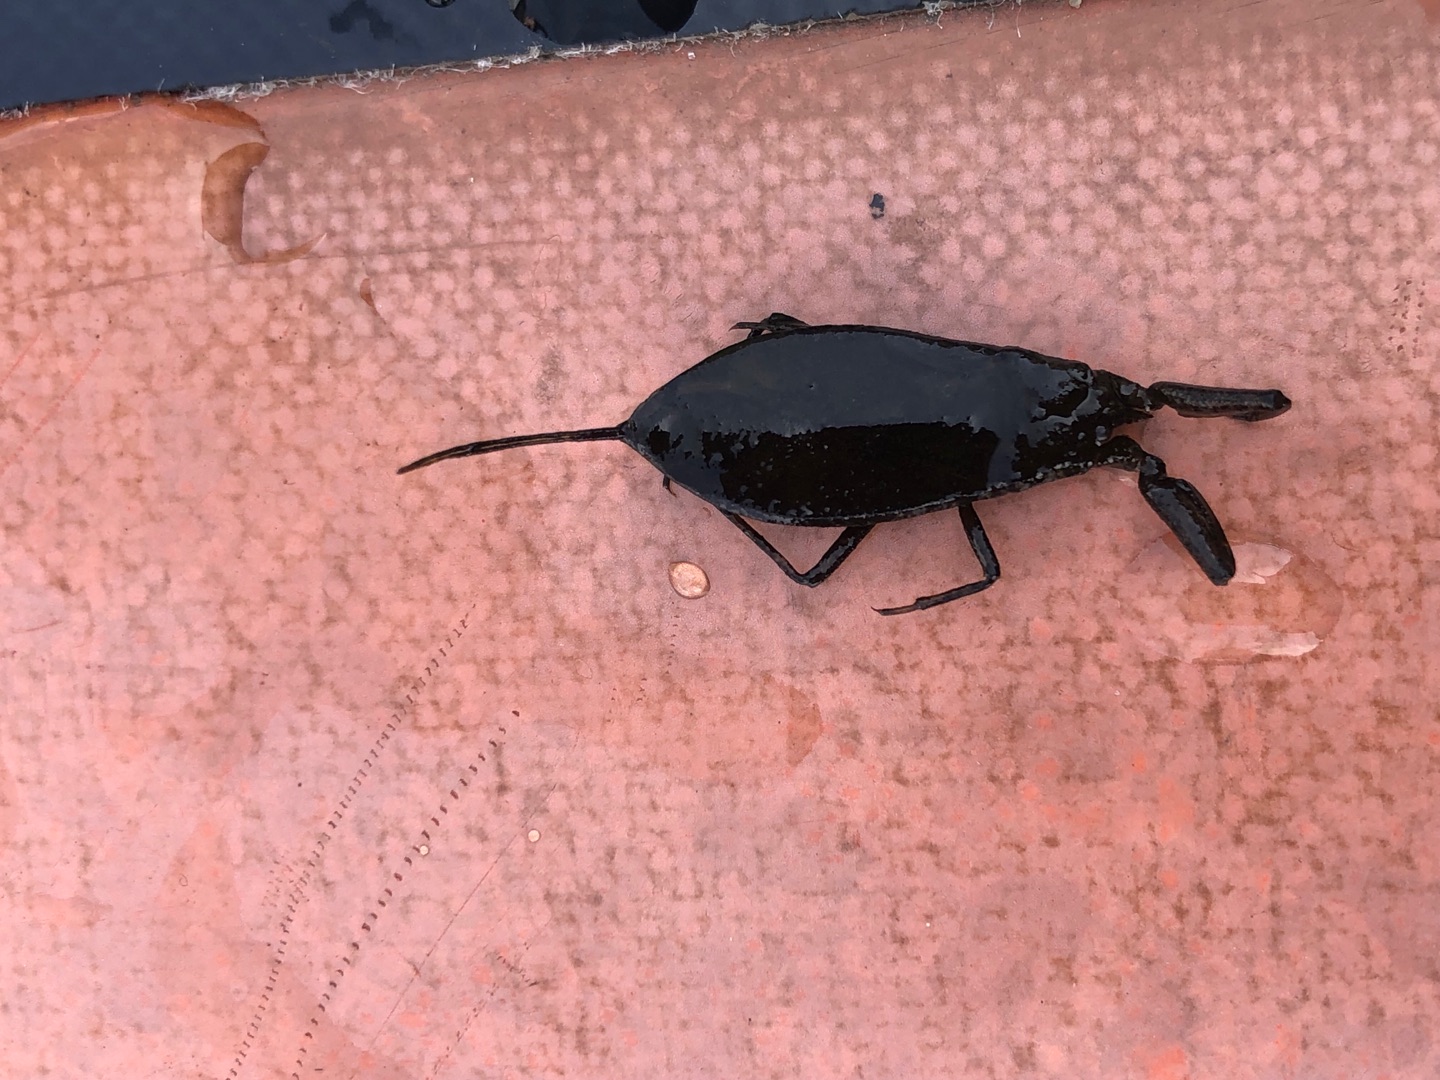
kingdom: Animalia
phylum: Arthropoda
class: Insecta
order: Hemiptera
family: Nepidae
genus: Nepa
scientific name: Nepa cinerea
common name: Skorpiontæge
